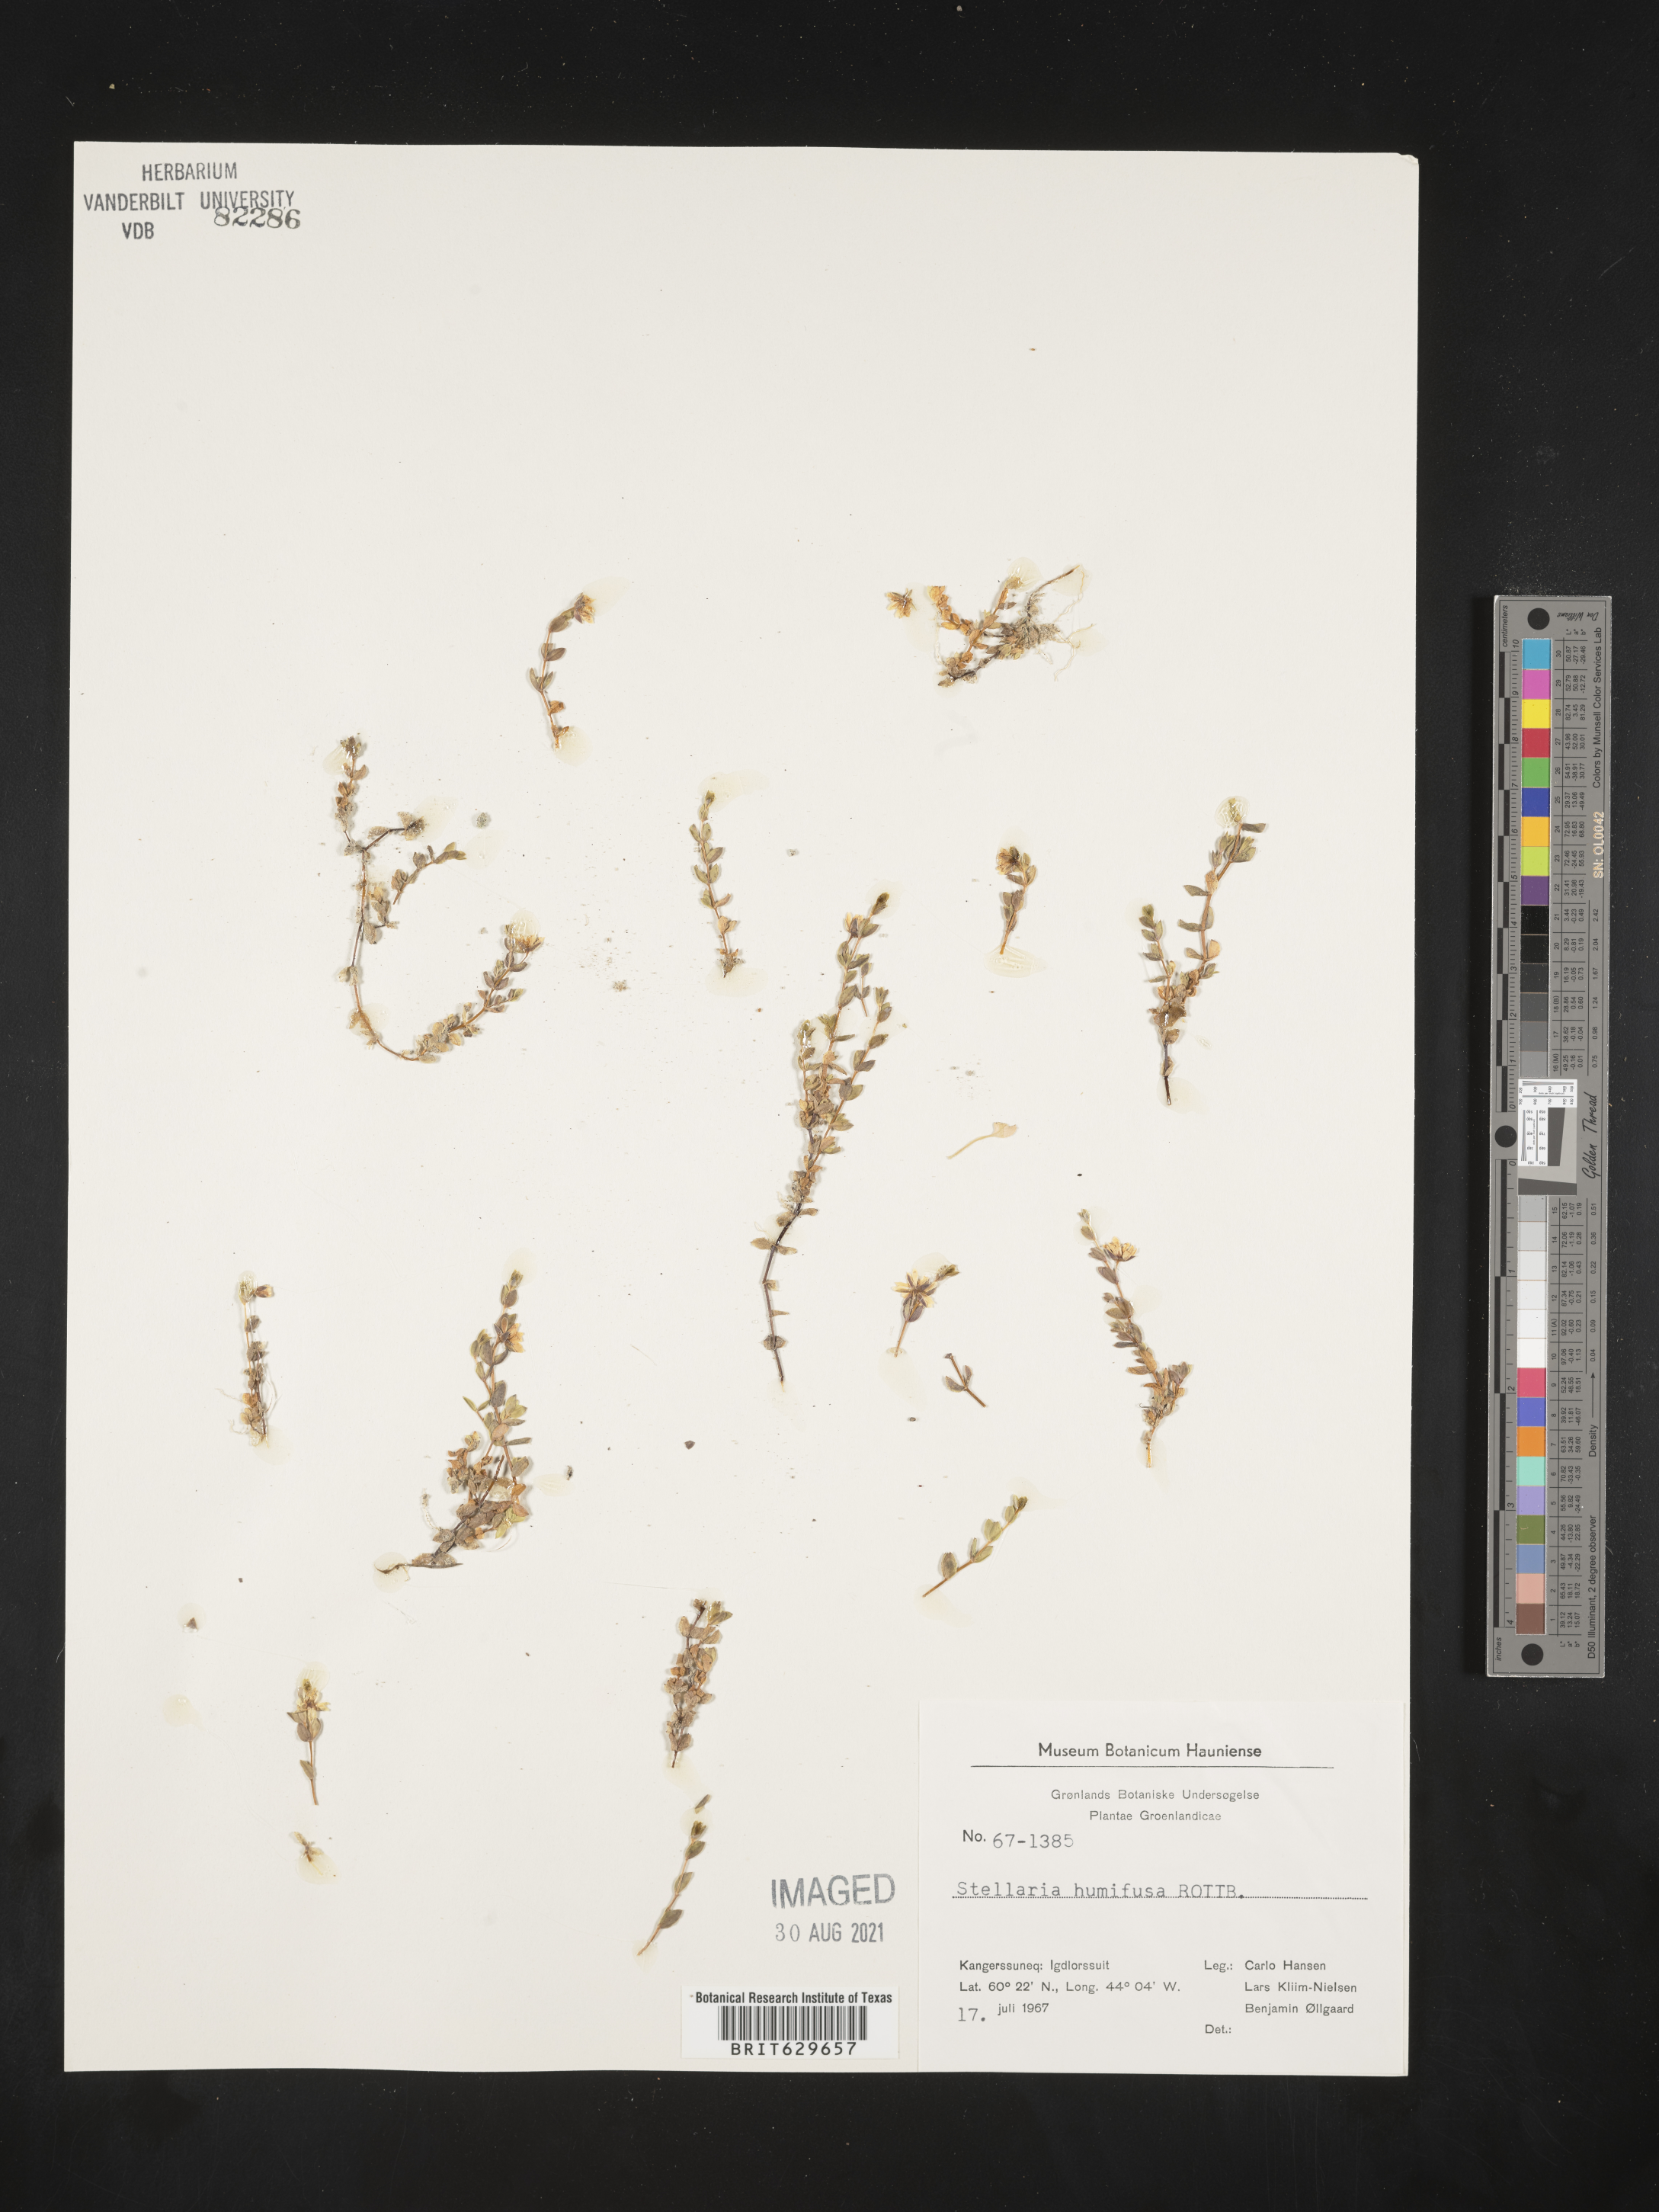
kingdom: Plantae
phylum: Tracheophyta
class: Magnoliopsida
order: Caryophyllales
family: Caryophyllaceae
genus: Stellaria
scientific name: Stellaria humifusa
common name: Creeping starwort
